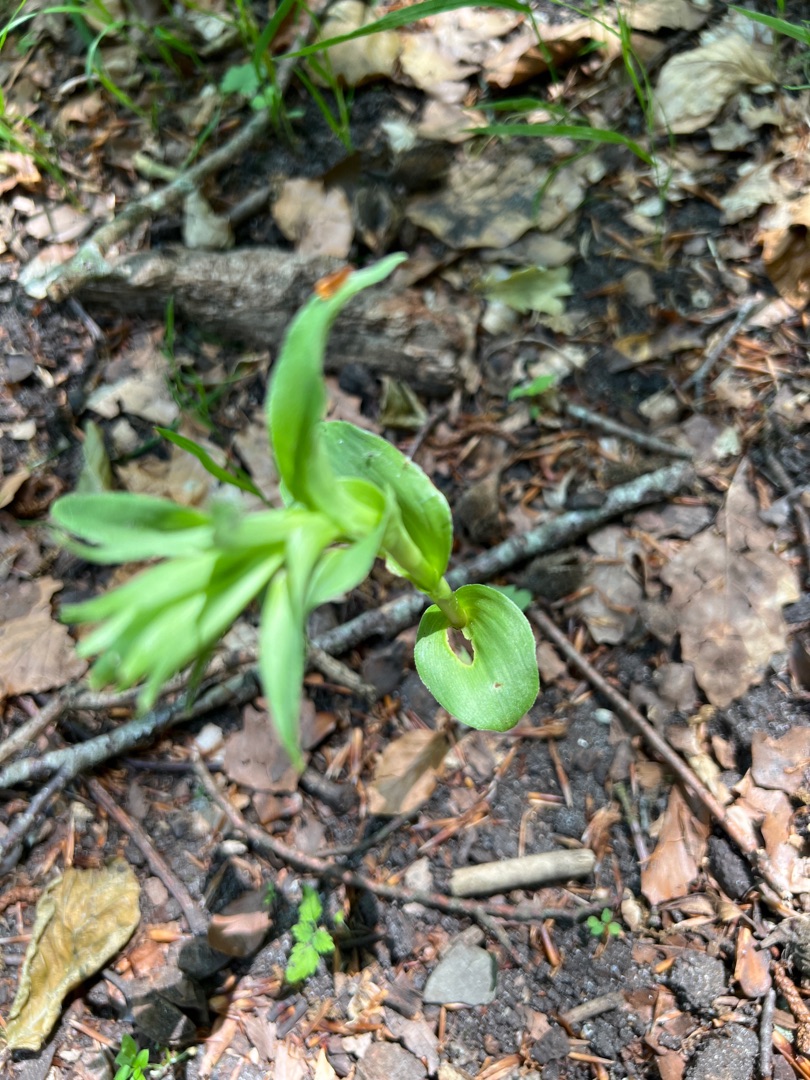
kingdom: Plantae
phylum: Tracheophyta
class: Liliopsida
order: Asparagales
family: Orchidaceae
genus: Epipactis
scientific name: Epipactis helleborine
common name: Skov-hullæbe
